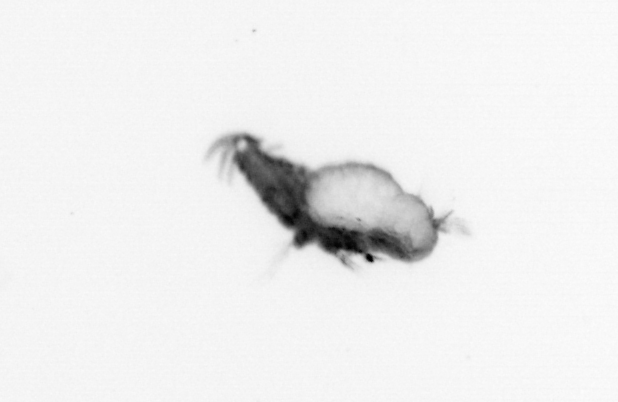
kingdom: Animalia
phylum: Annelida
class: Polychaeta
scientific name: Polychaeta
